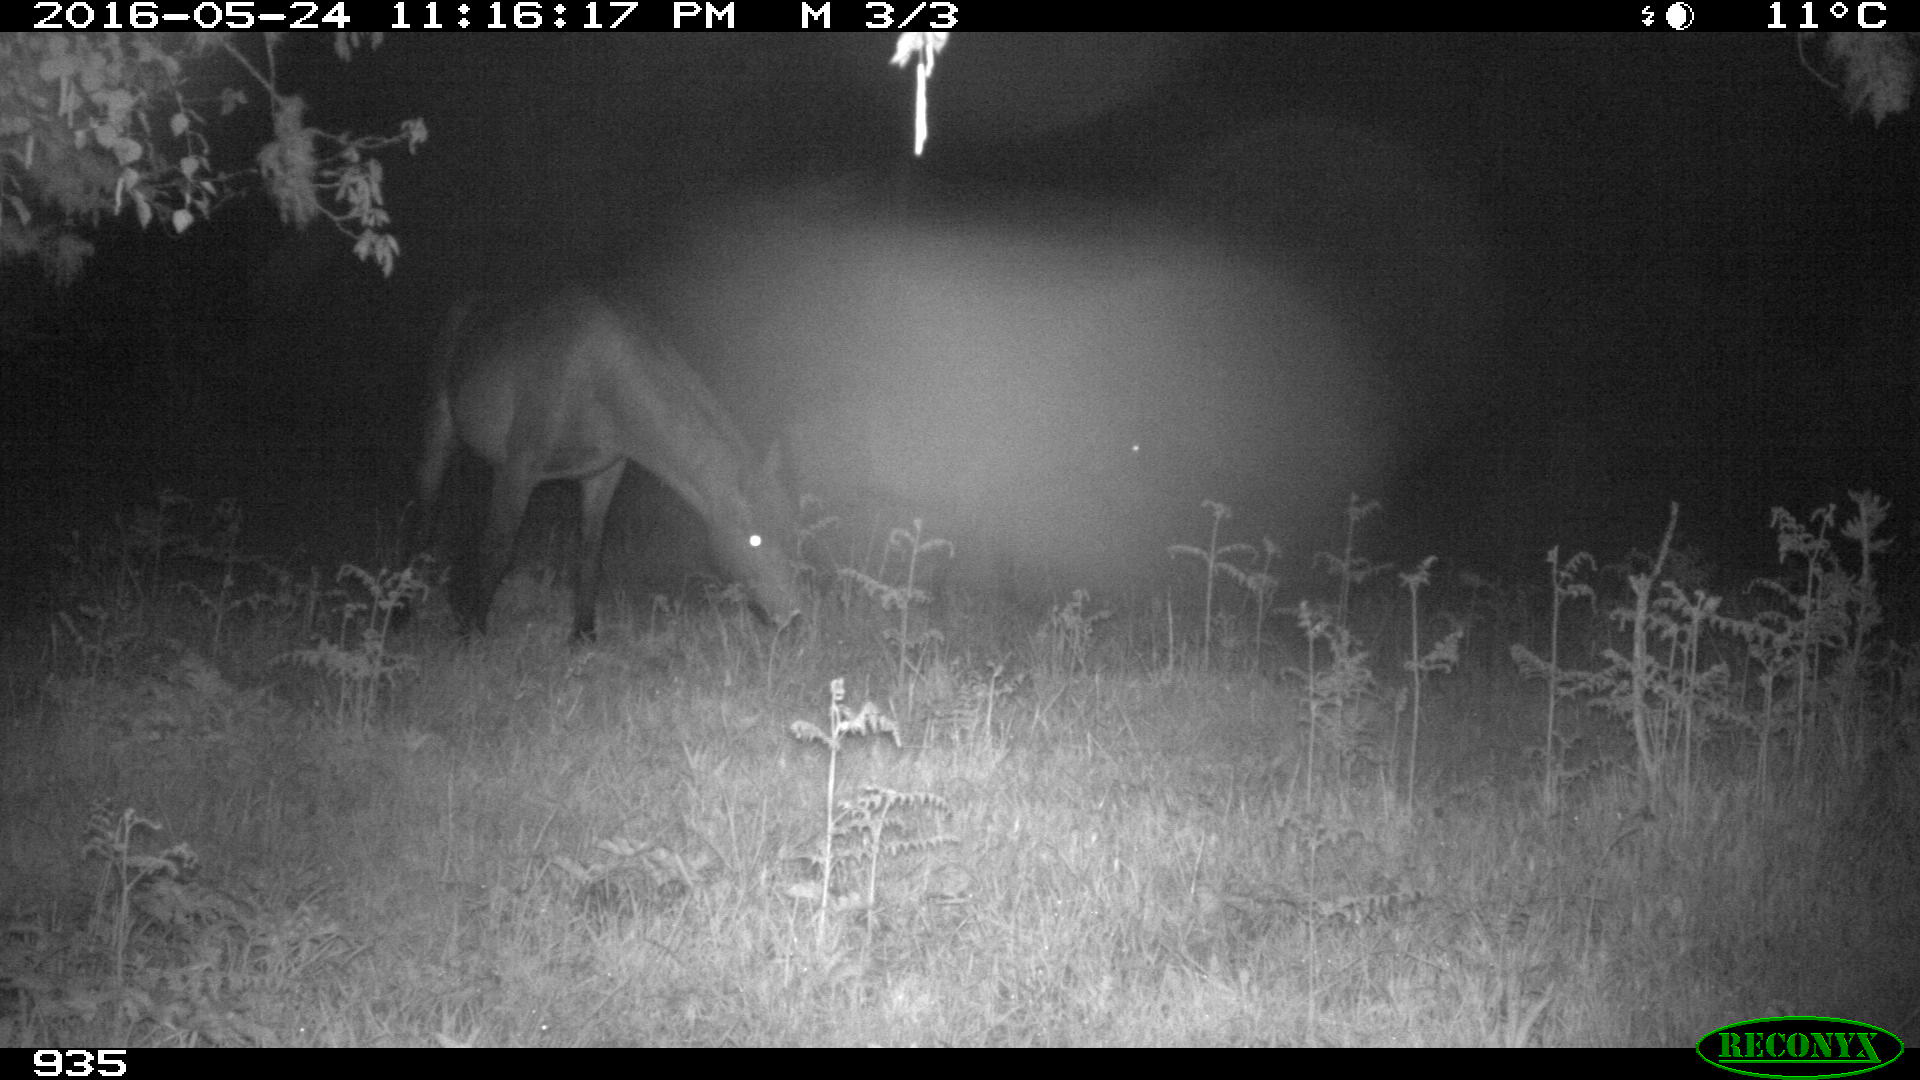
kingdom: Animalia
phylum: Chordata
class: Mammalia
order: Perissodactyla
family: Equidae
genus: Equus
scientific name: Equus caballus
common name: Horse
